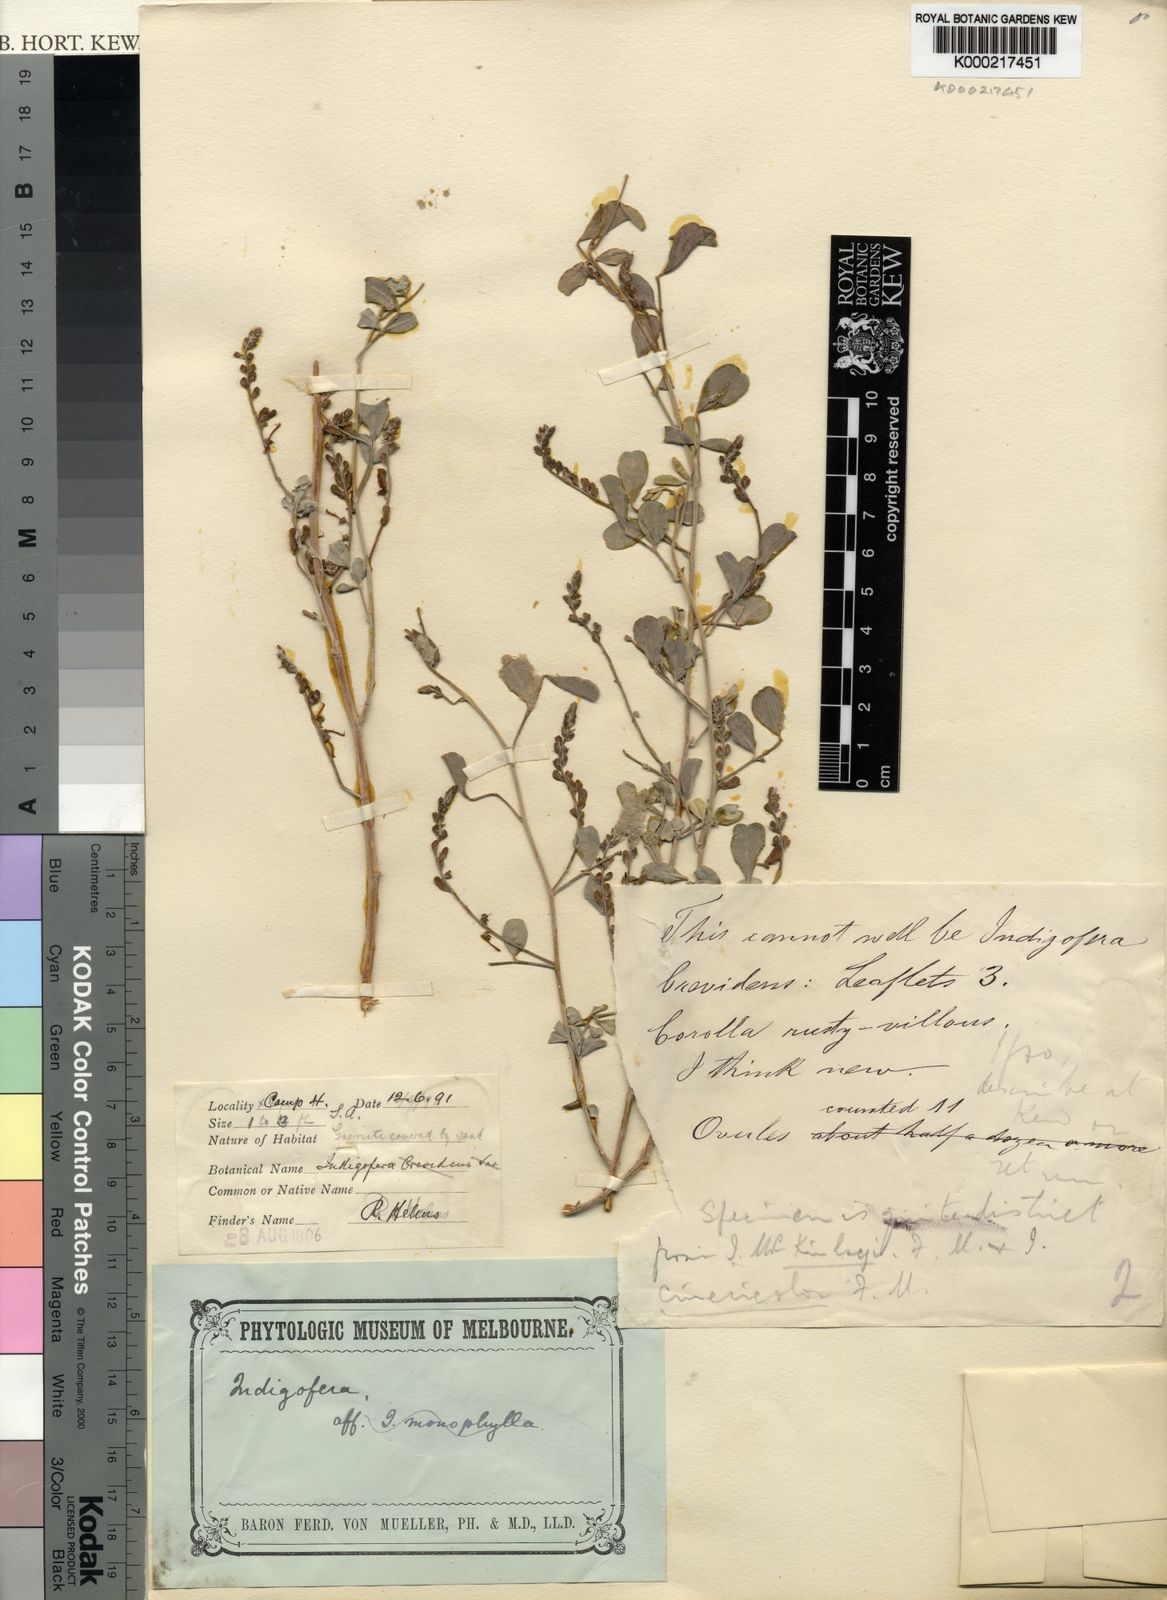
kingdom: Plantae
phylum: Tracheophyta
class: Magnoliopsida
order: Fabales
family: Fabaceae
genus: Indigofera
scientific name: Indigofera monophylla
